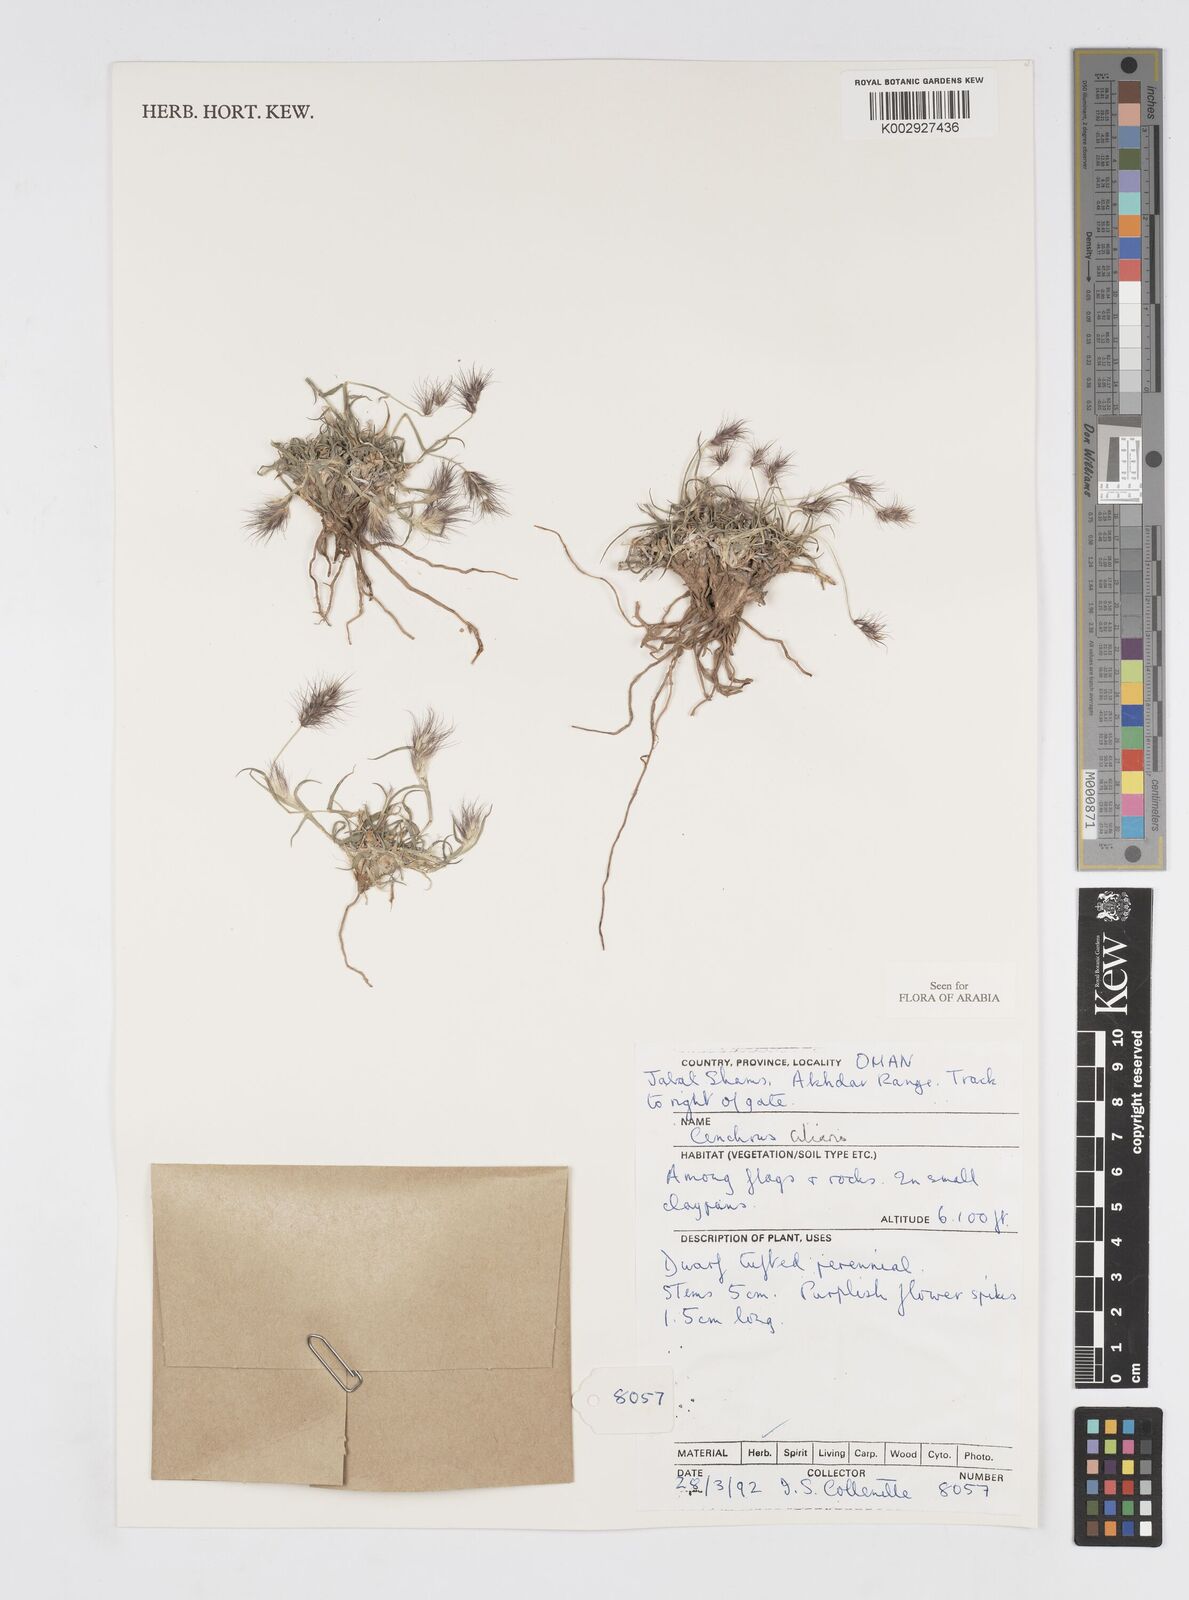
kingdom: Plantae
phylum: Tracheophyta
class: Liliopsida
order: Poales
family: Poaceae
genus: Cenchrus
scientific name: Cenchrus ciliaris
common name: Buffelgrass
